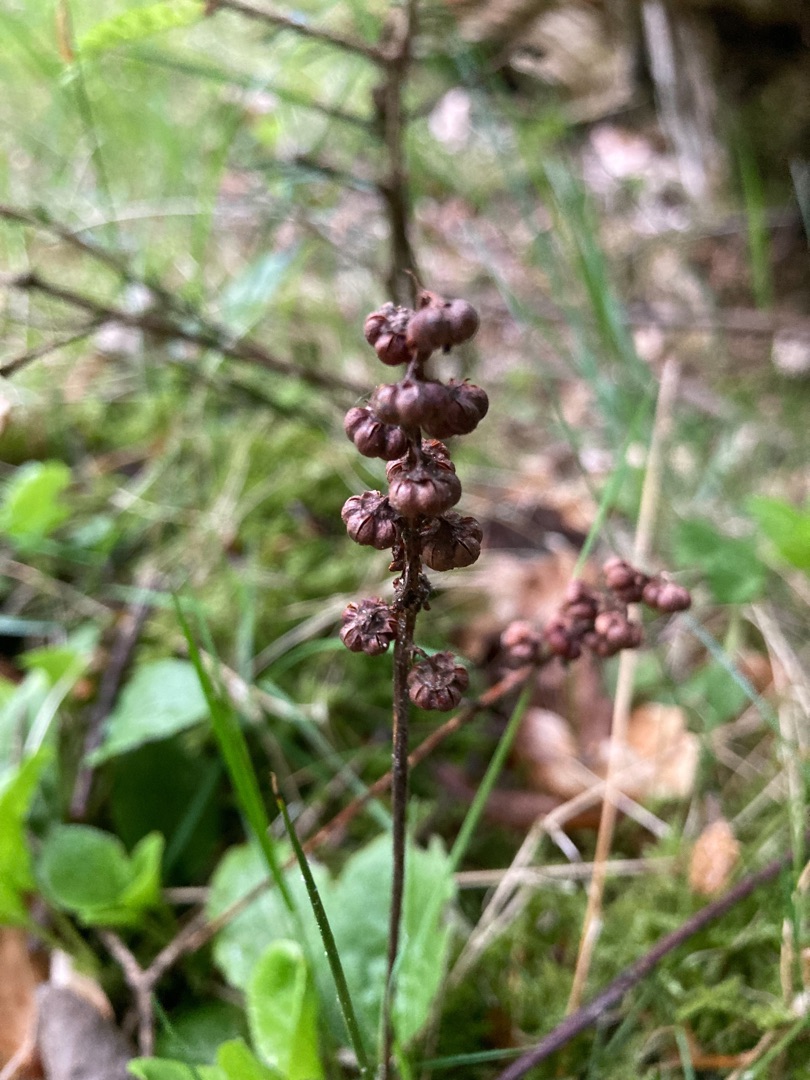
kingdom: Plantae
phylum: Tracheophyta
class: Magnoliopsida
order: Ericales
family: Ericaceae
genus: Pyrola
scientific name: Pyrola minor
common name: Liden vintergrøn
